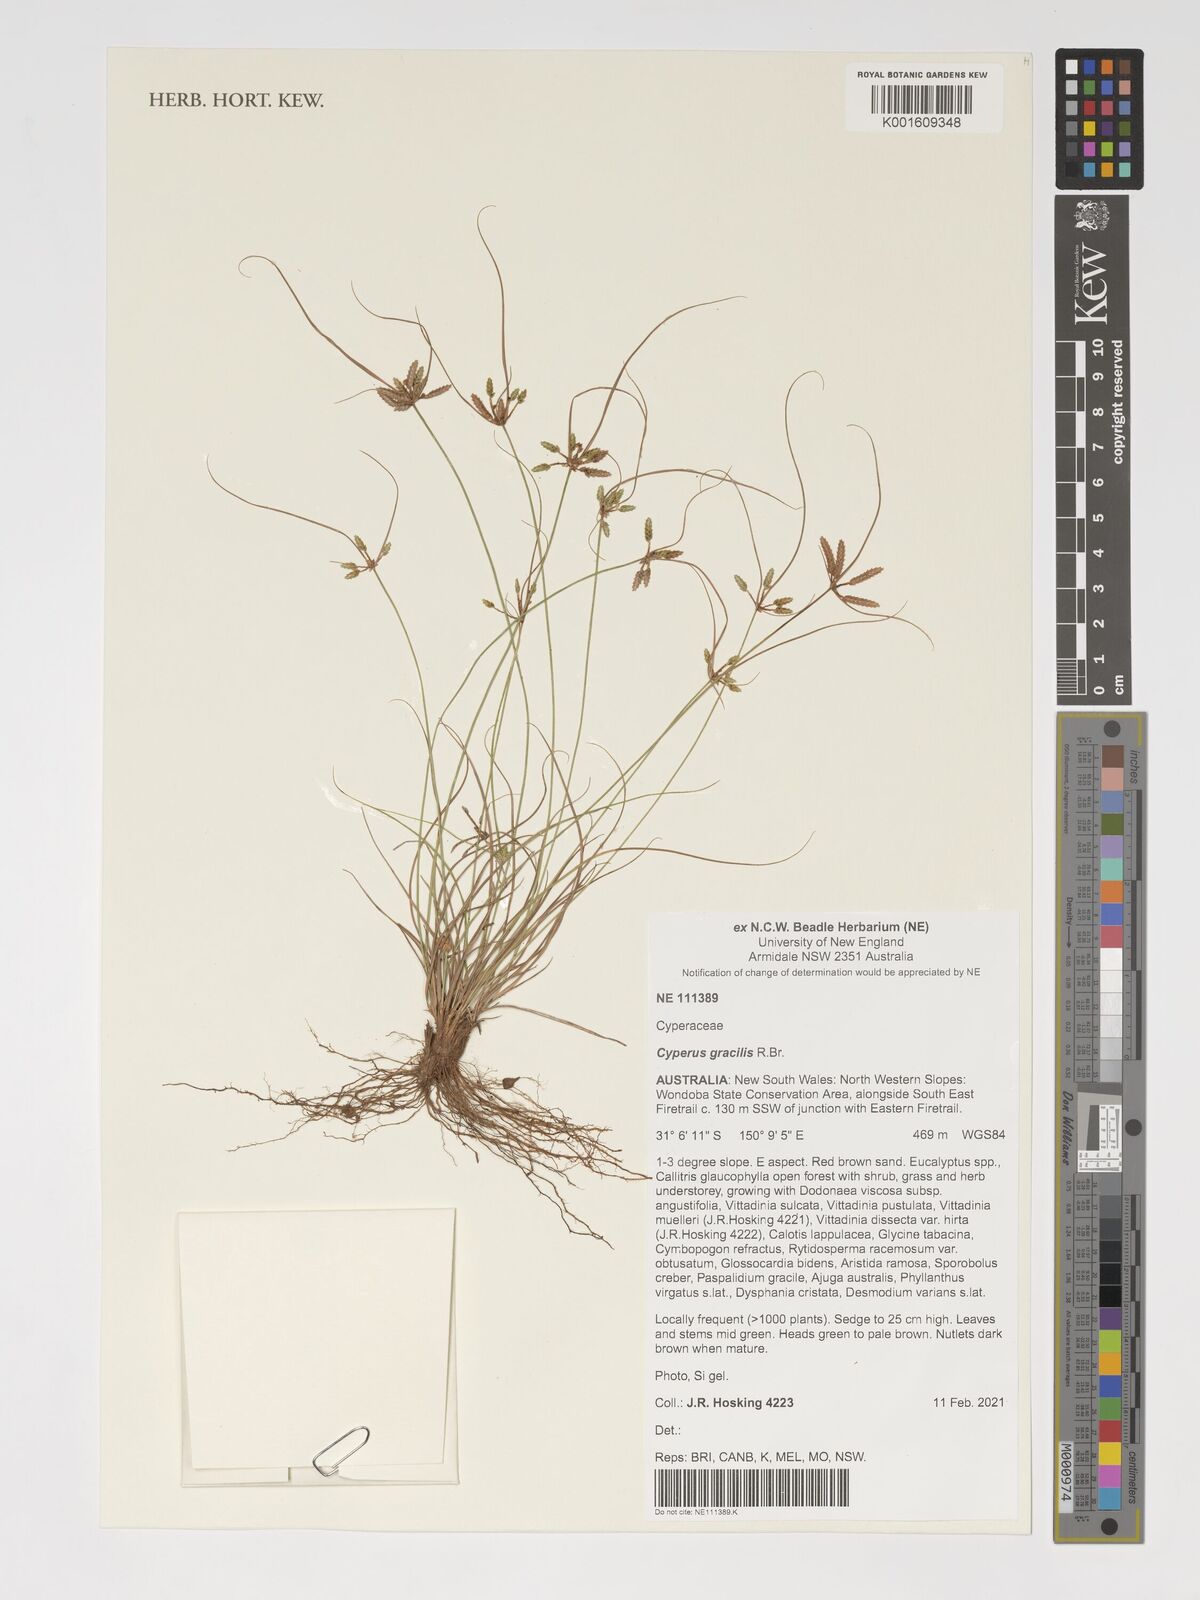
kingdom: Plantae
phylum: Tracheophyta
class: Liliopsida
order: Poales
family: Cyperaceae
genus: Cyperus
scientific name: Cyperus gracilis
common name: Slimjim flatsedge
